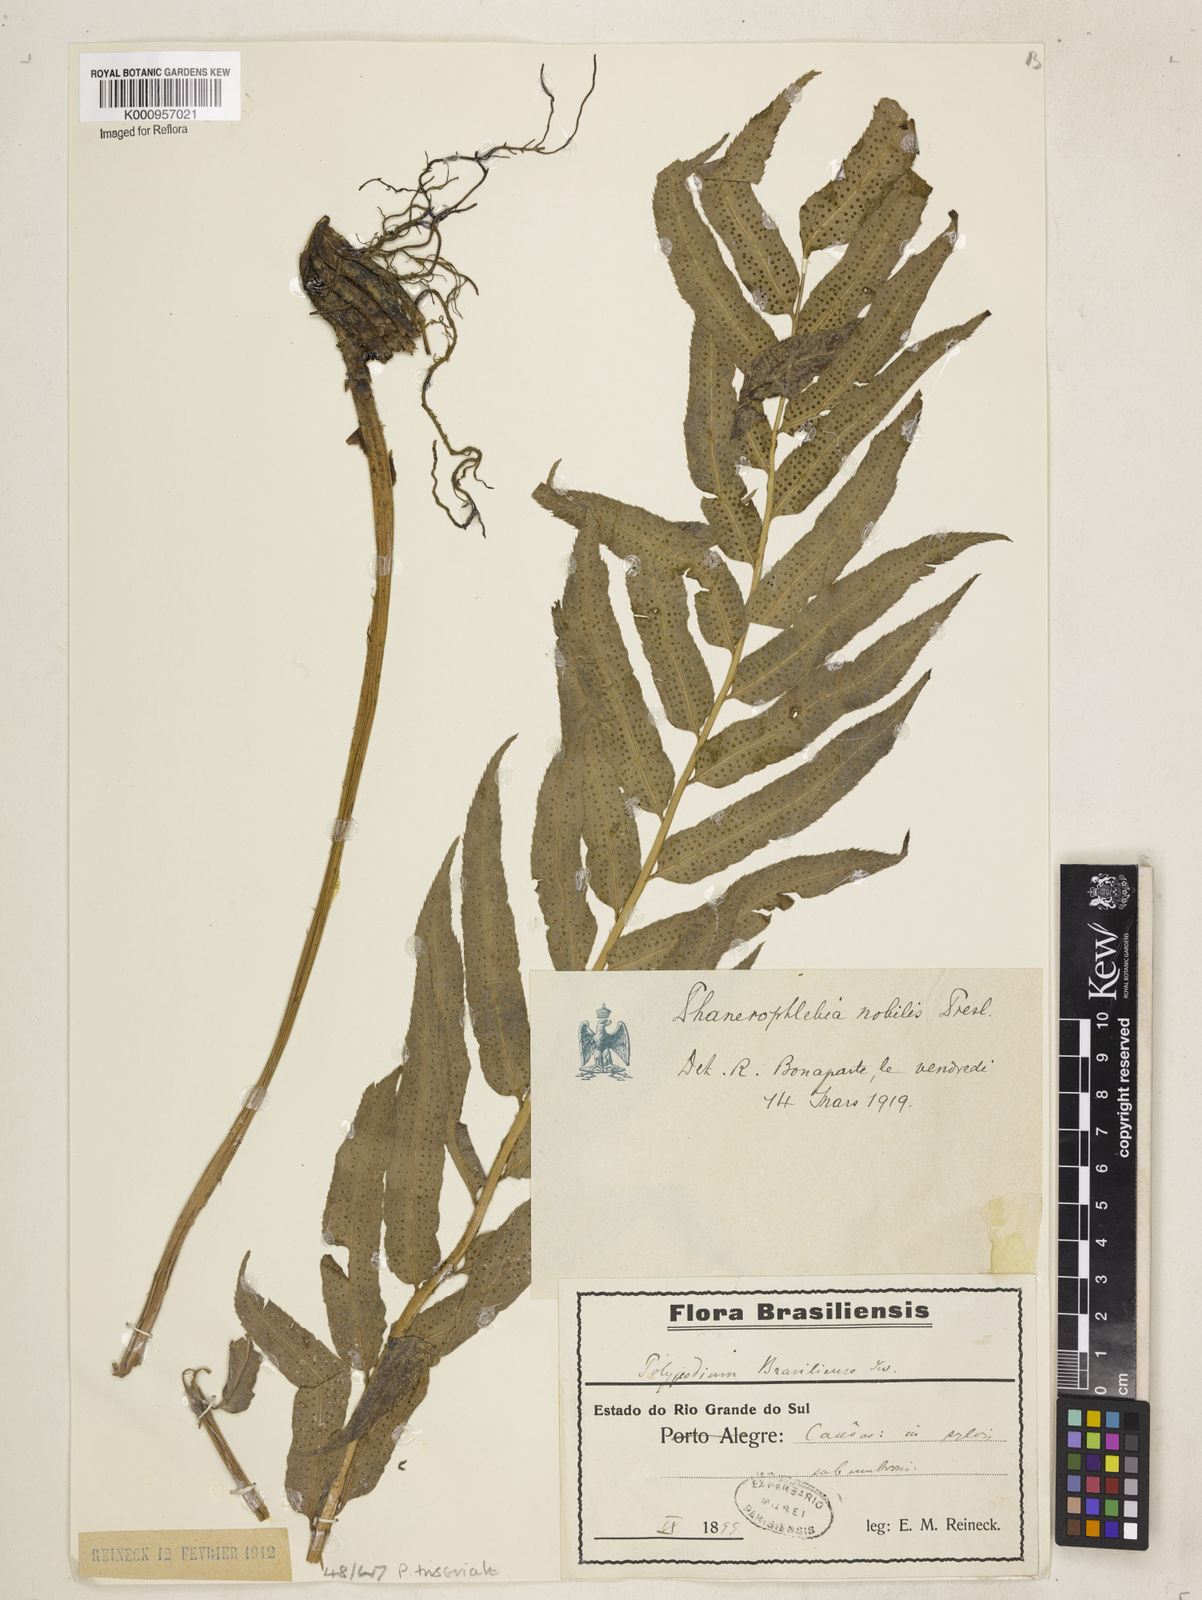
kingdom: Plantae
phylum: Tracheophyta
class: Polypodiopsida
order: Polypodiales
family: Dryopteridaceae
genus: Phanerophlebia
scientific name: Phanerophlebia nobilis
